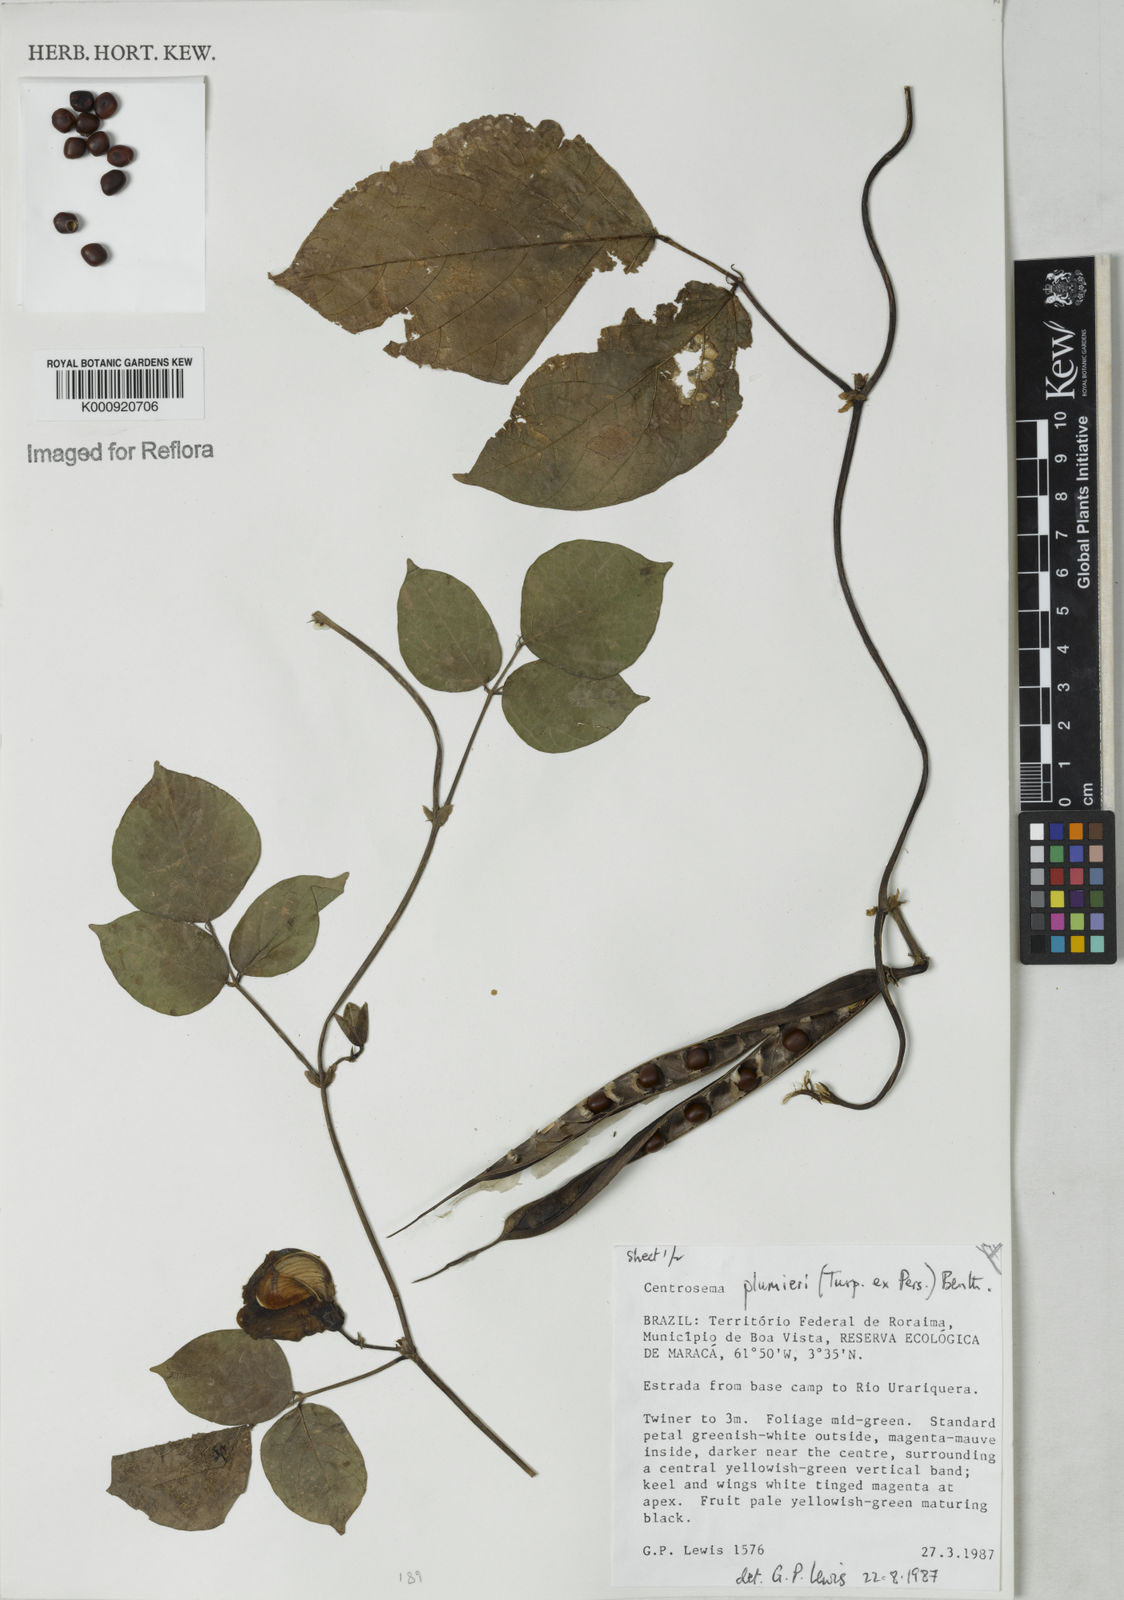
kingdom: Plantae
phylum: Tracheophyta
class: Magnoliopsida
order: Fabales
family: Fabaceae
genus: Centrosema
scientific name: Centrosema plumieri
